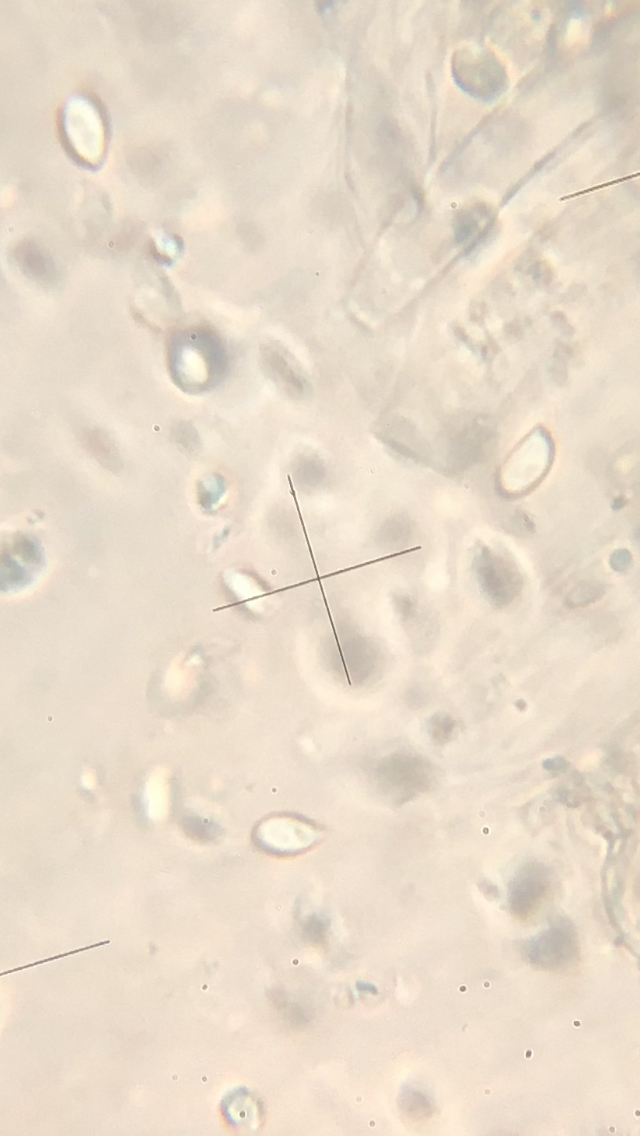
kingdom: Fungi
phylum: Basidiomycota
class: Agaricomycetes
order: Agaricales
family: Tricholomataceae
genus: Cystoderma
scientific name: Cystoderma amianthinum
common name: okkergul grynhat
